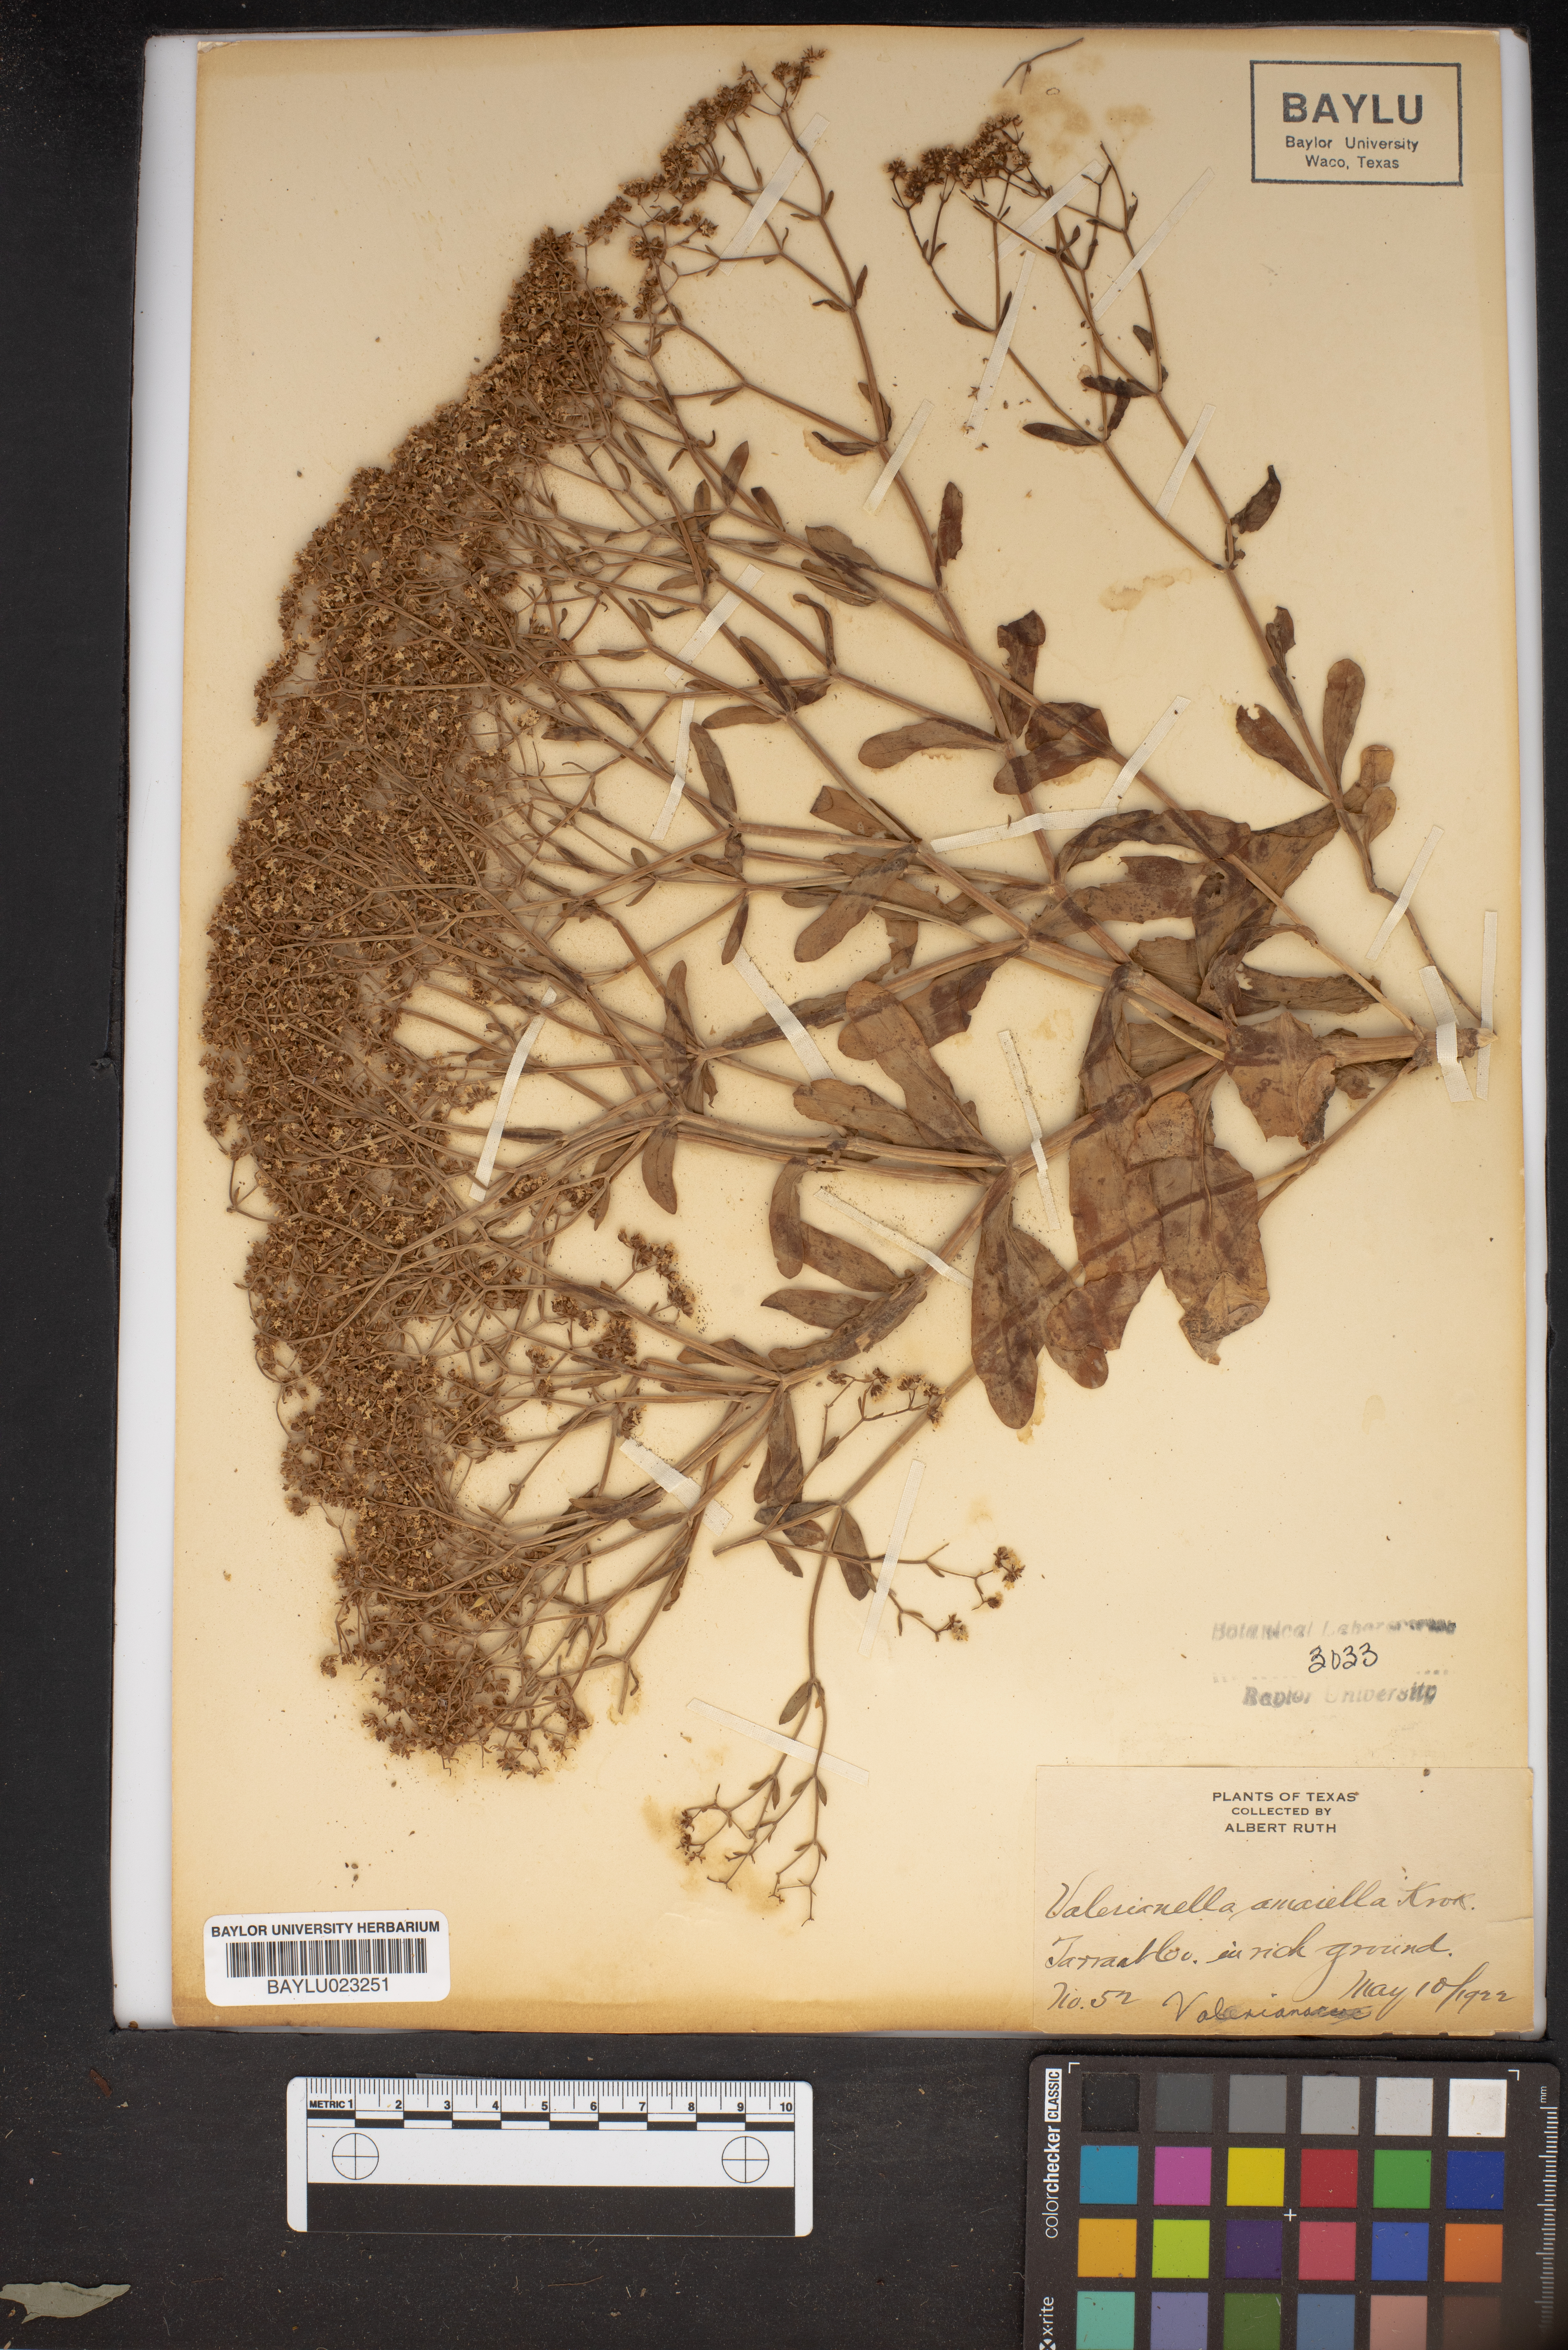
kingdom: Plantae
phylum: Tracheophyta
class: Magnoliopsida
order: Dipsacales
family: Caprifoliaceae
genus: Valerianella
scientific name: Valerianella amarella
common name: Hariy cornsalad
